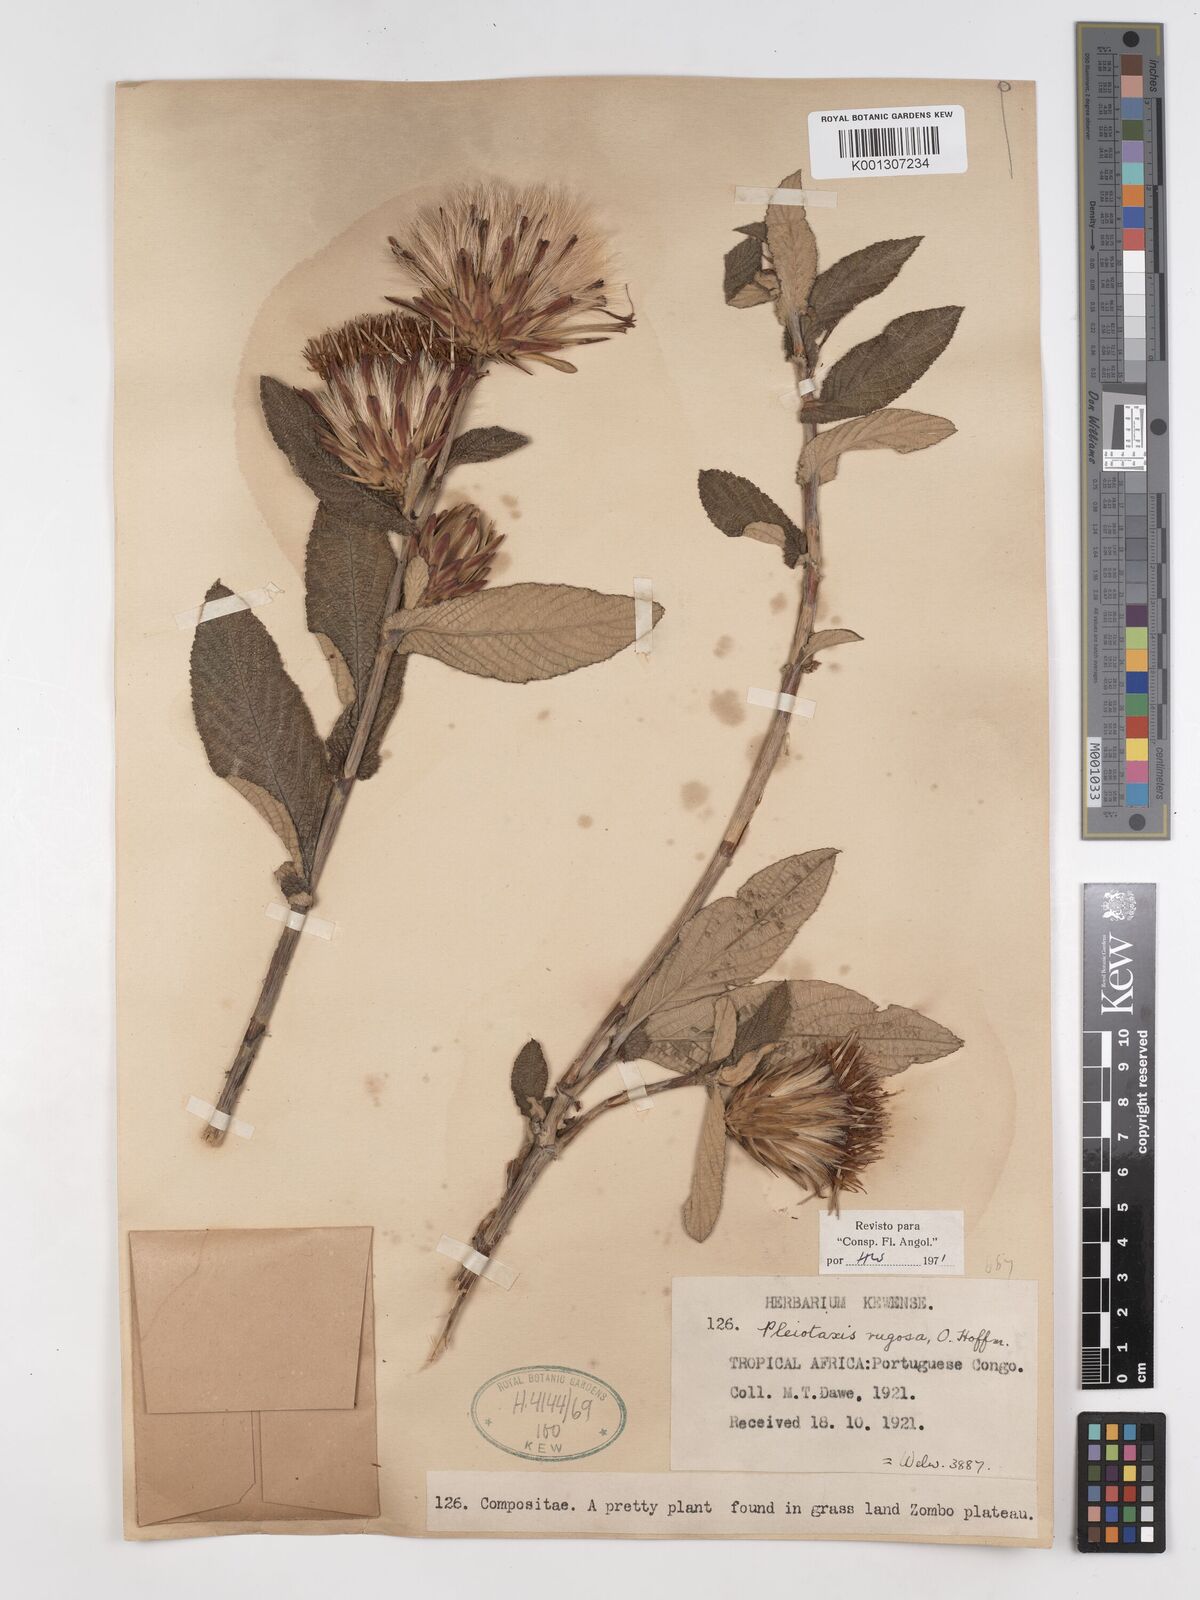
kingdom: Plantae
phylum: Tracheophyta
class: Magnoliopsida
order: Asterales
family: Asteraceae
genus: Pleiotaxis
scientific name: Pleiotaxis rugosa
